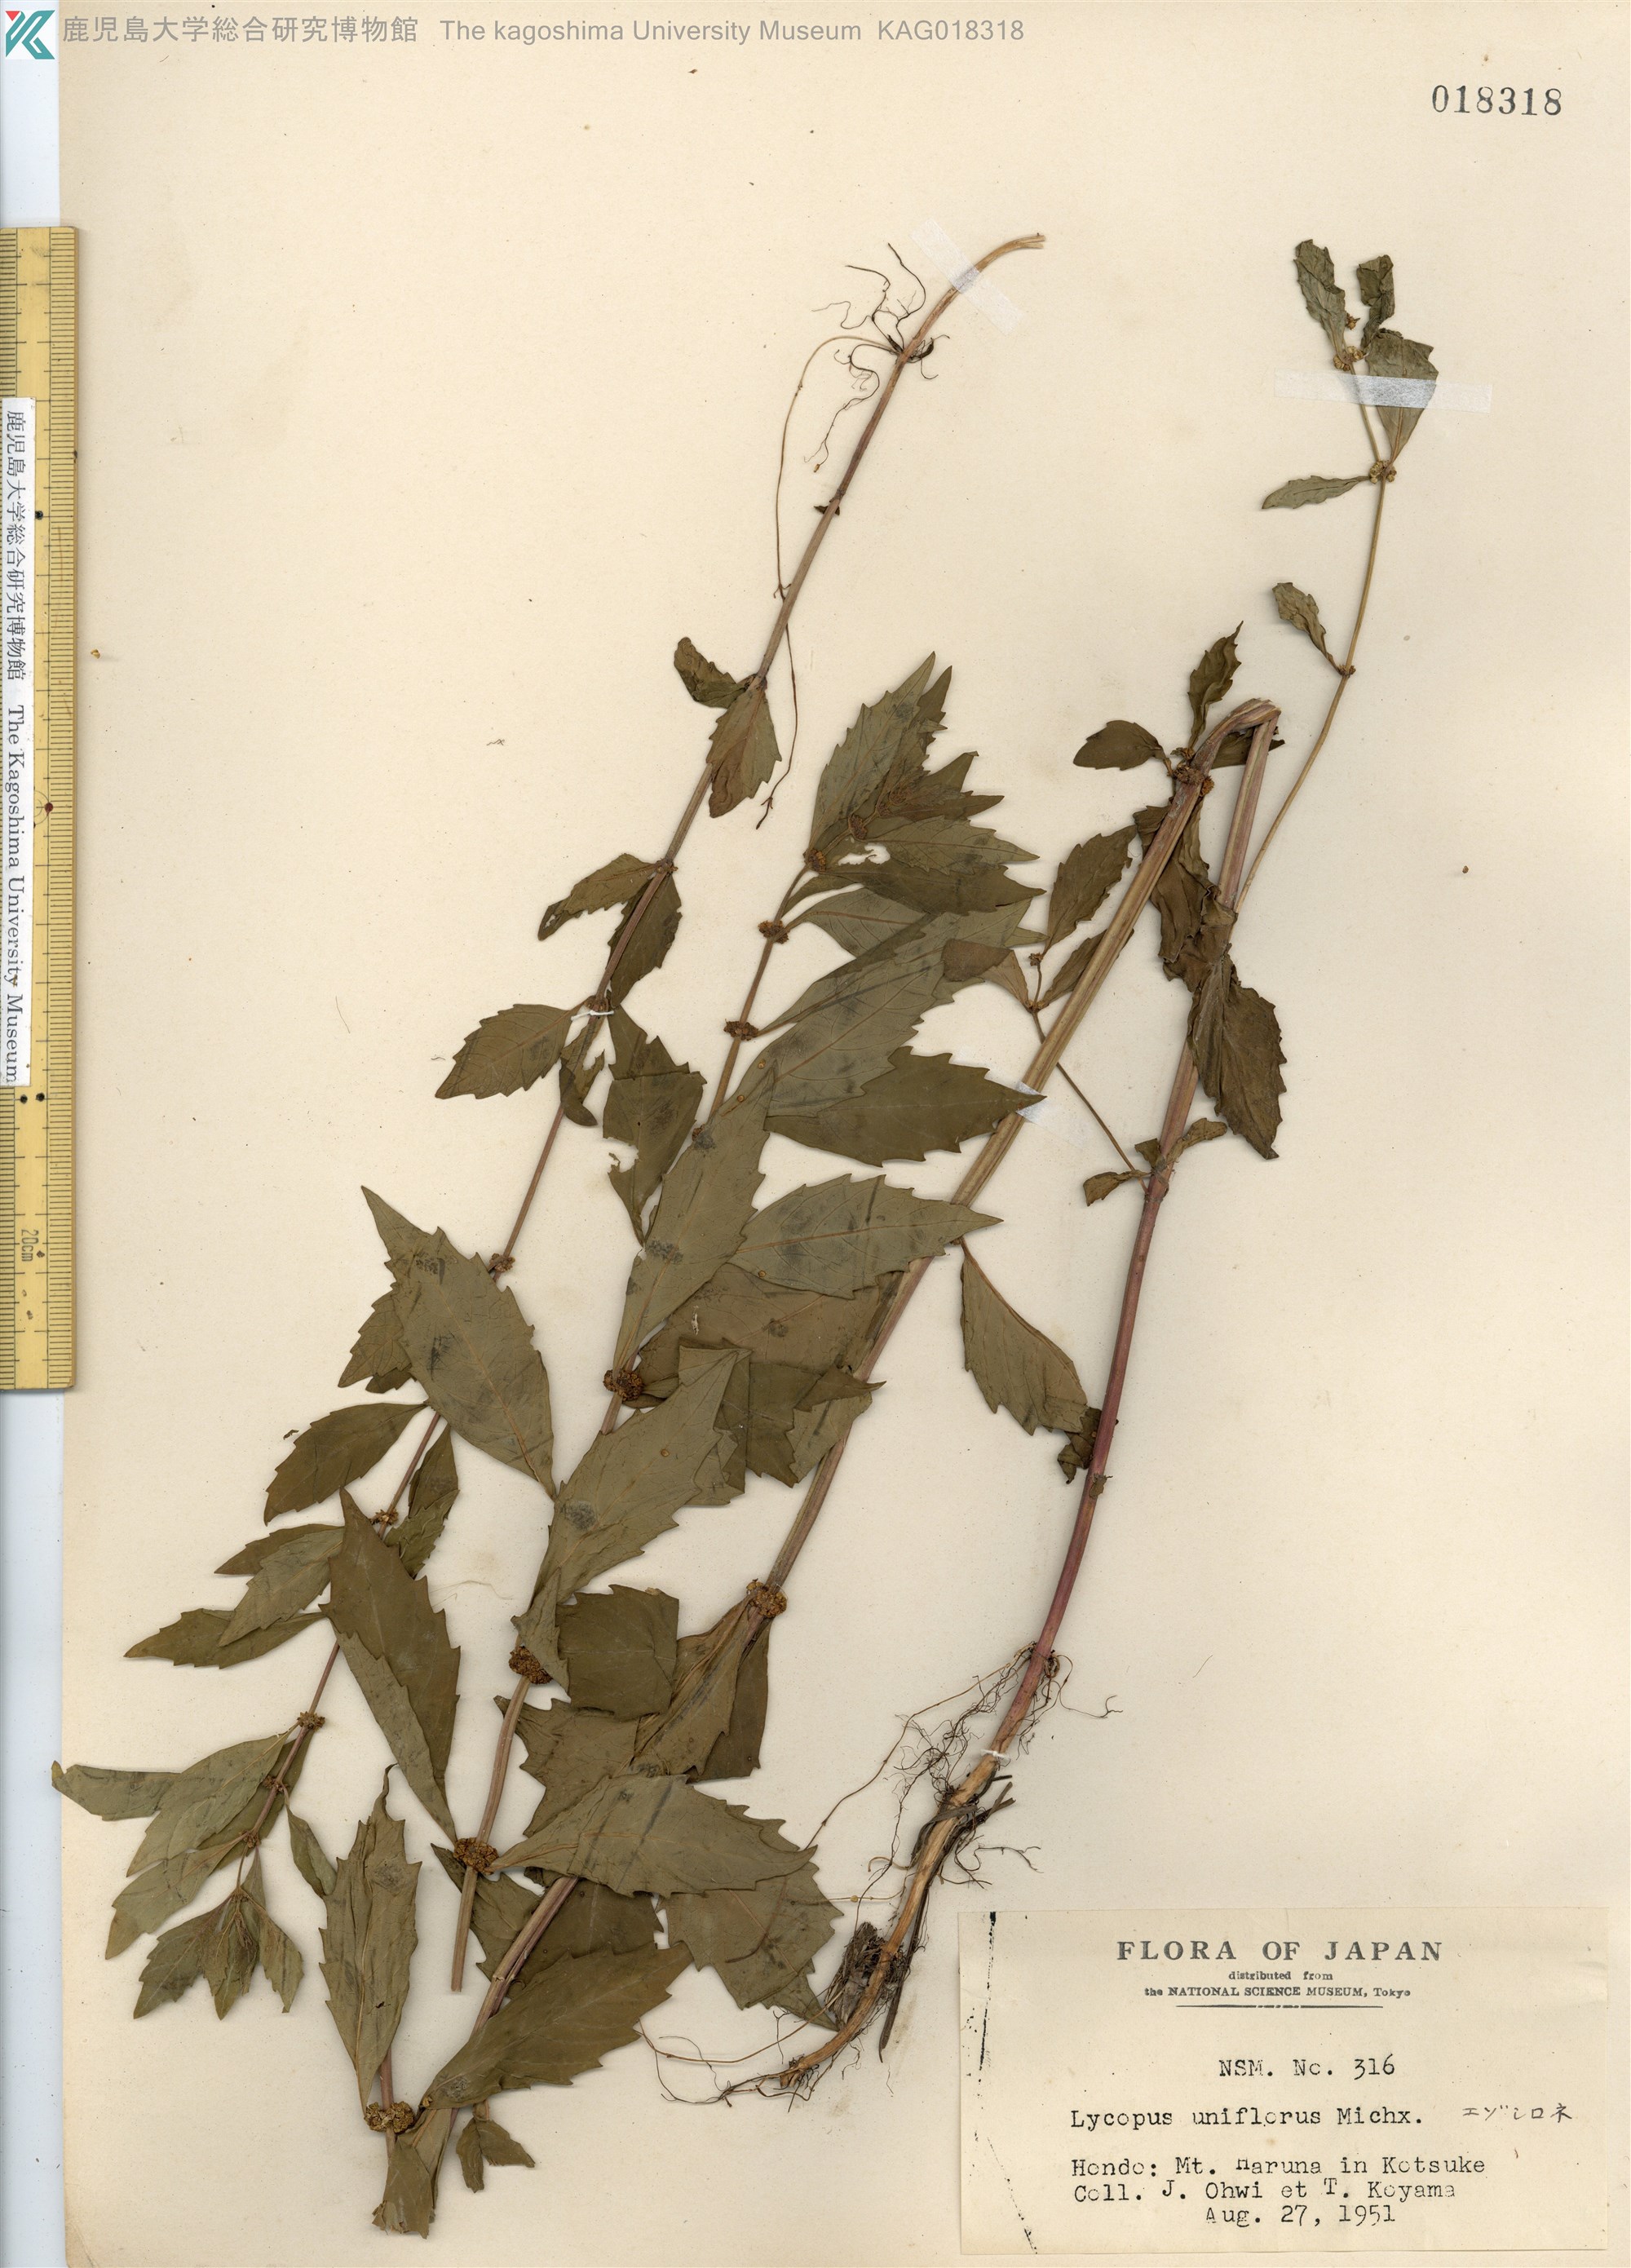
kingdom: Plantae
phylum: Tracheophyta
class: Magnoliopsida
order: Lamiales
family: Lamiaceae
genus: Lycopus
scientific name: Lycopus uniflorus
